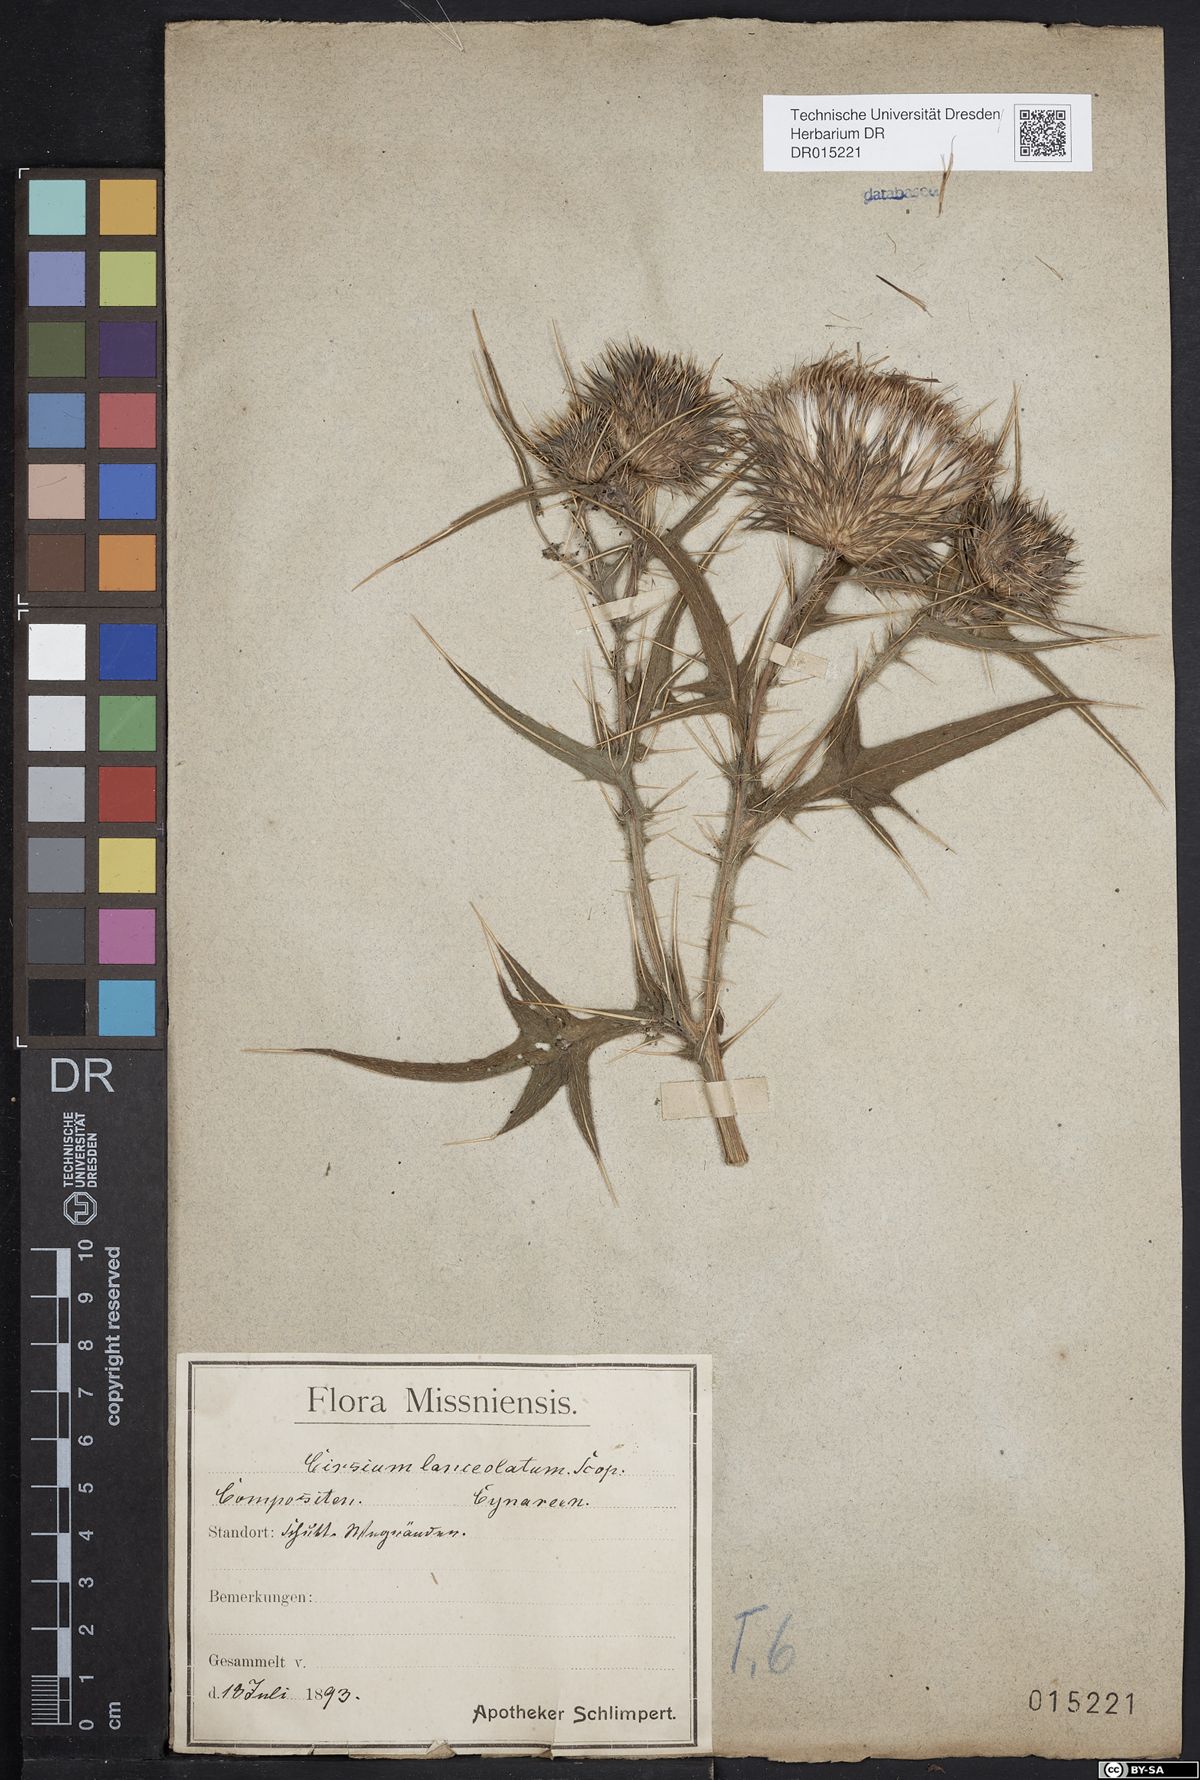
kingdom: Plantae
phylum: Tracheophyta
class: Magnoliopsida
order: Asterales
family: Asteraceae
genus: Cirsium
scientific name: Cirsium vulgare
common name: Bull thistle
